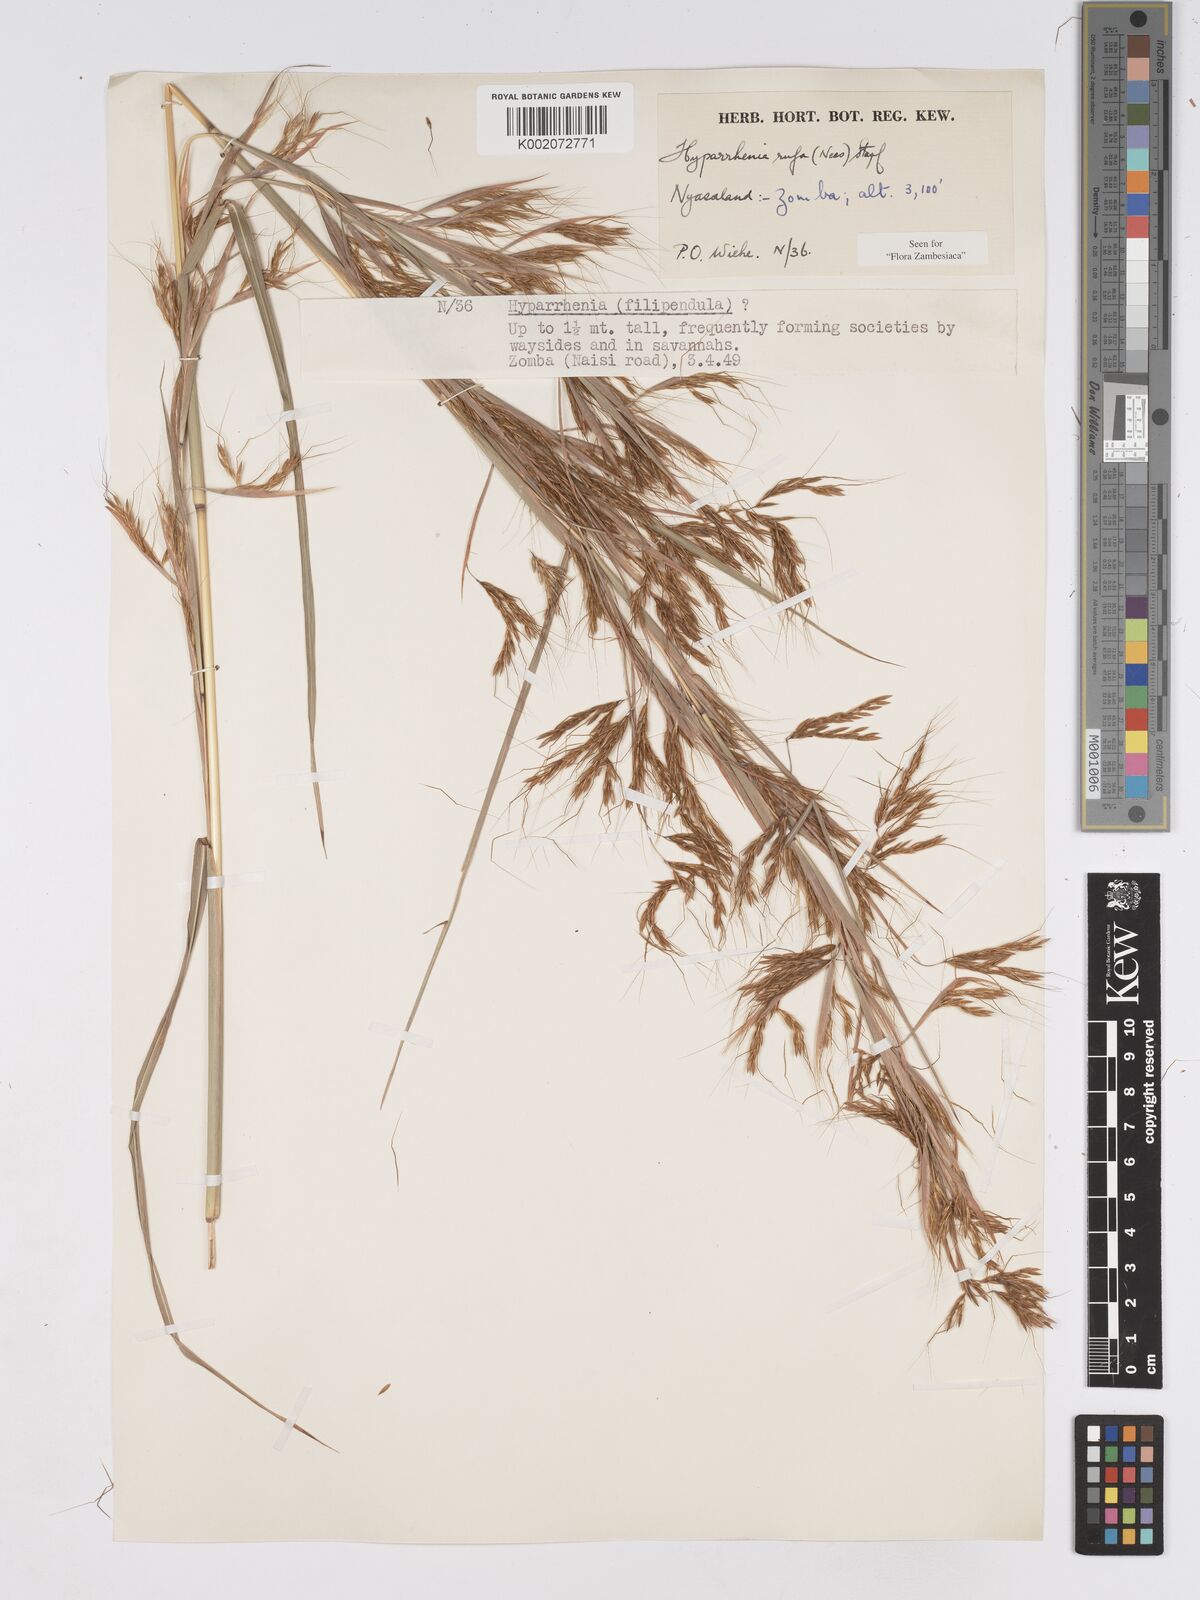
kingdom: Plantae
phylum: Tracheophyta
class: Liliopsida
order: Poales
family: Poaceae
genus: Hyparrhenia
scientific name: Hyparrhenia rufa
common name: Jaraguagrass
